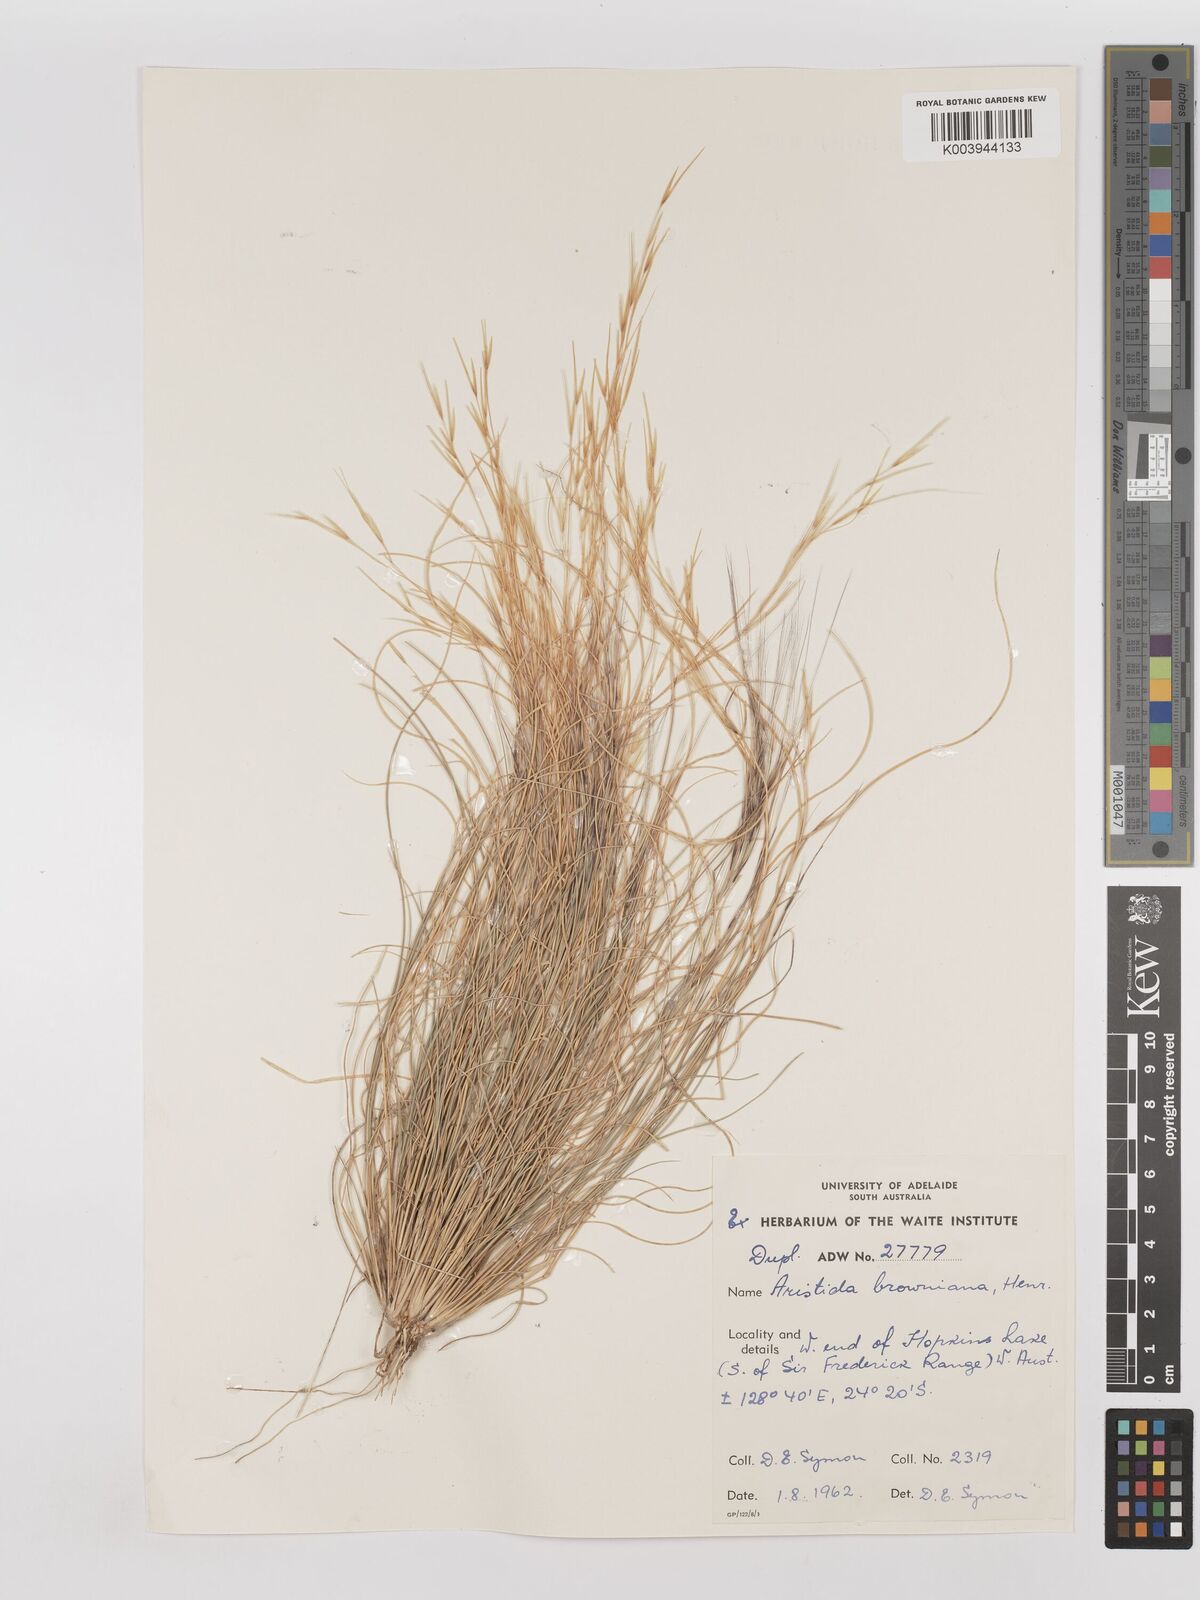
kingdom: Plantae
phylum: Tracheophyta
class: Liliopsida
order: Poales
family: Poaceae
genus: Aristida
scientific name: Aristida holathera
